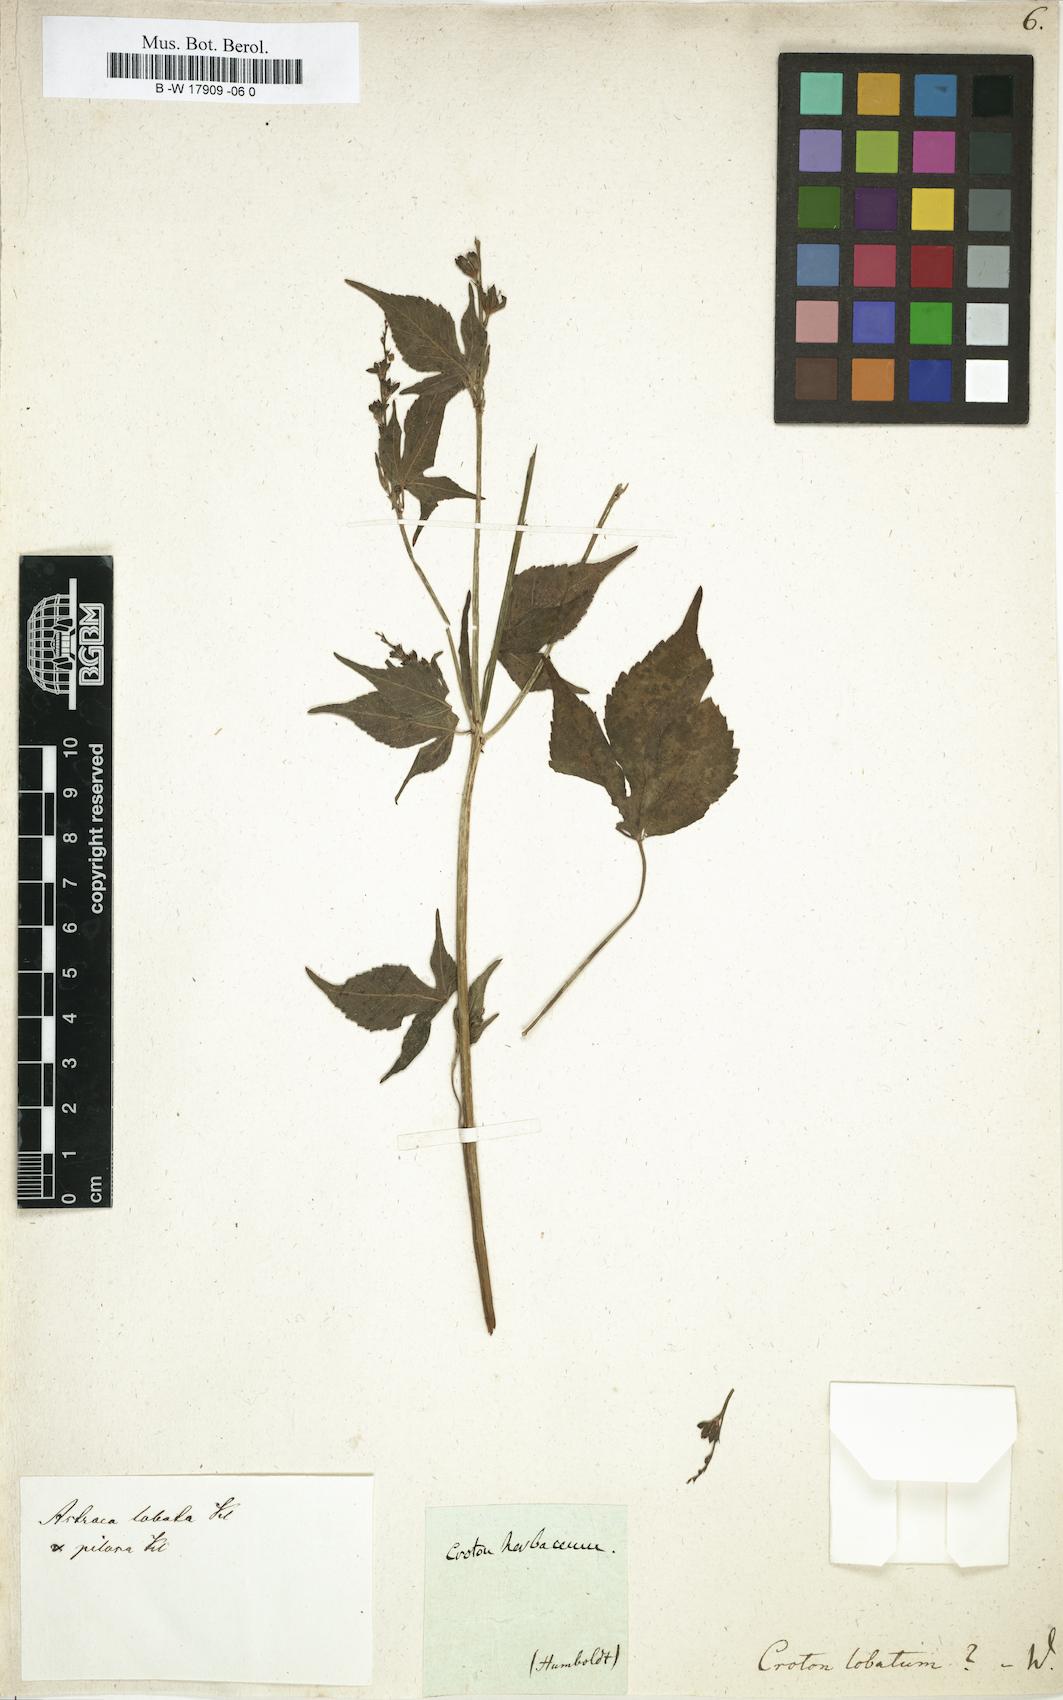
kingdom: Plantae
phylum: Tracheophyta
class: Magnoliopsida
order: Malpighiales
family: Euphorbiaceae
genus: Astraea
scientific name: Astraea lobata
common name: Lobed croton
